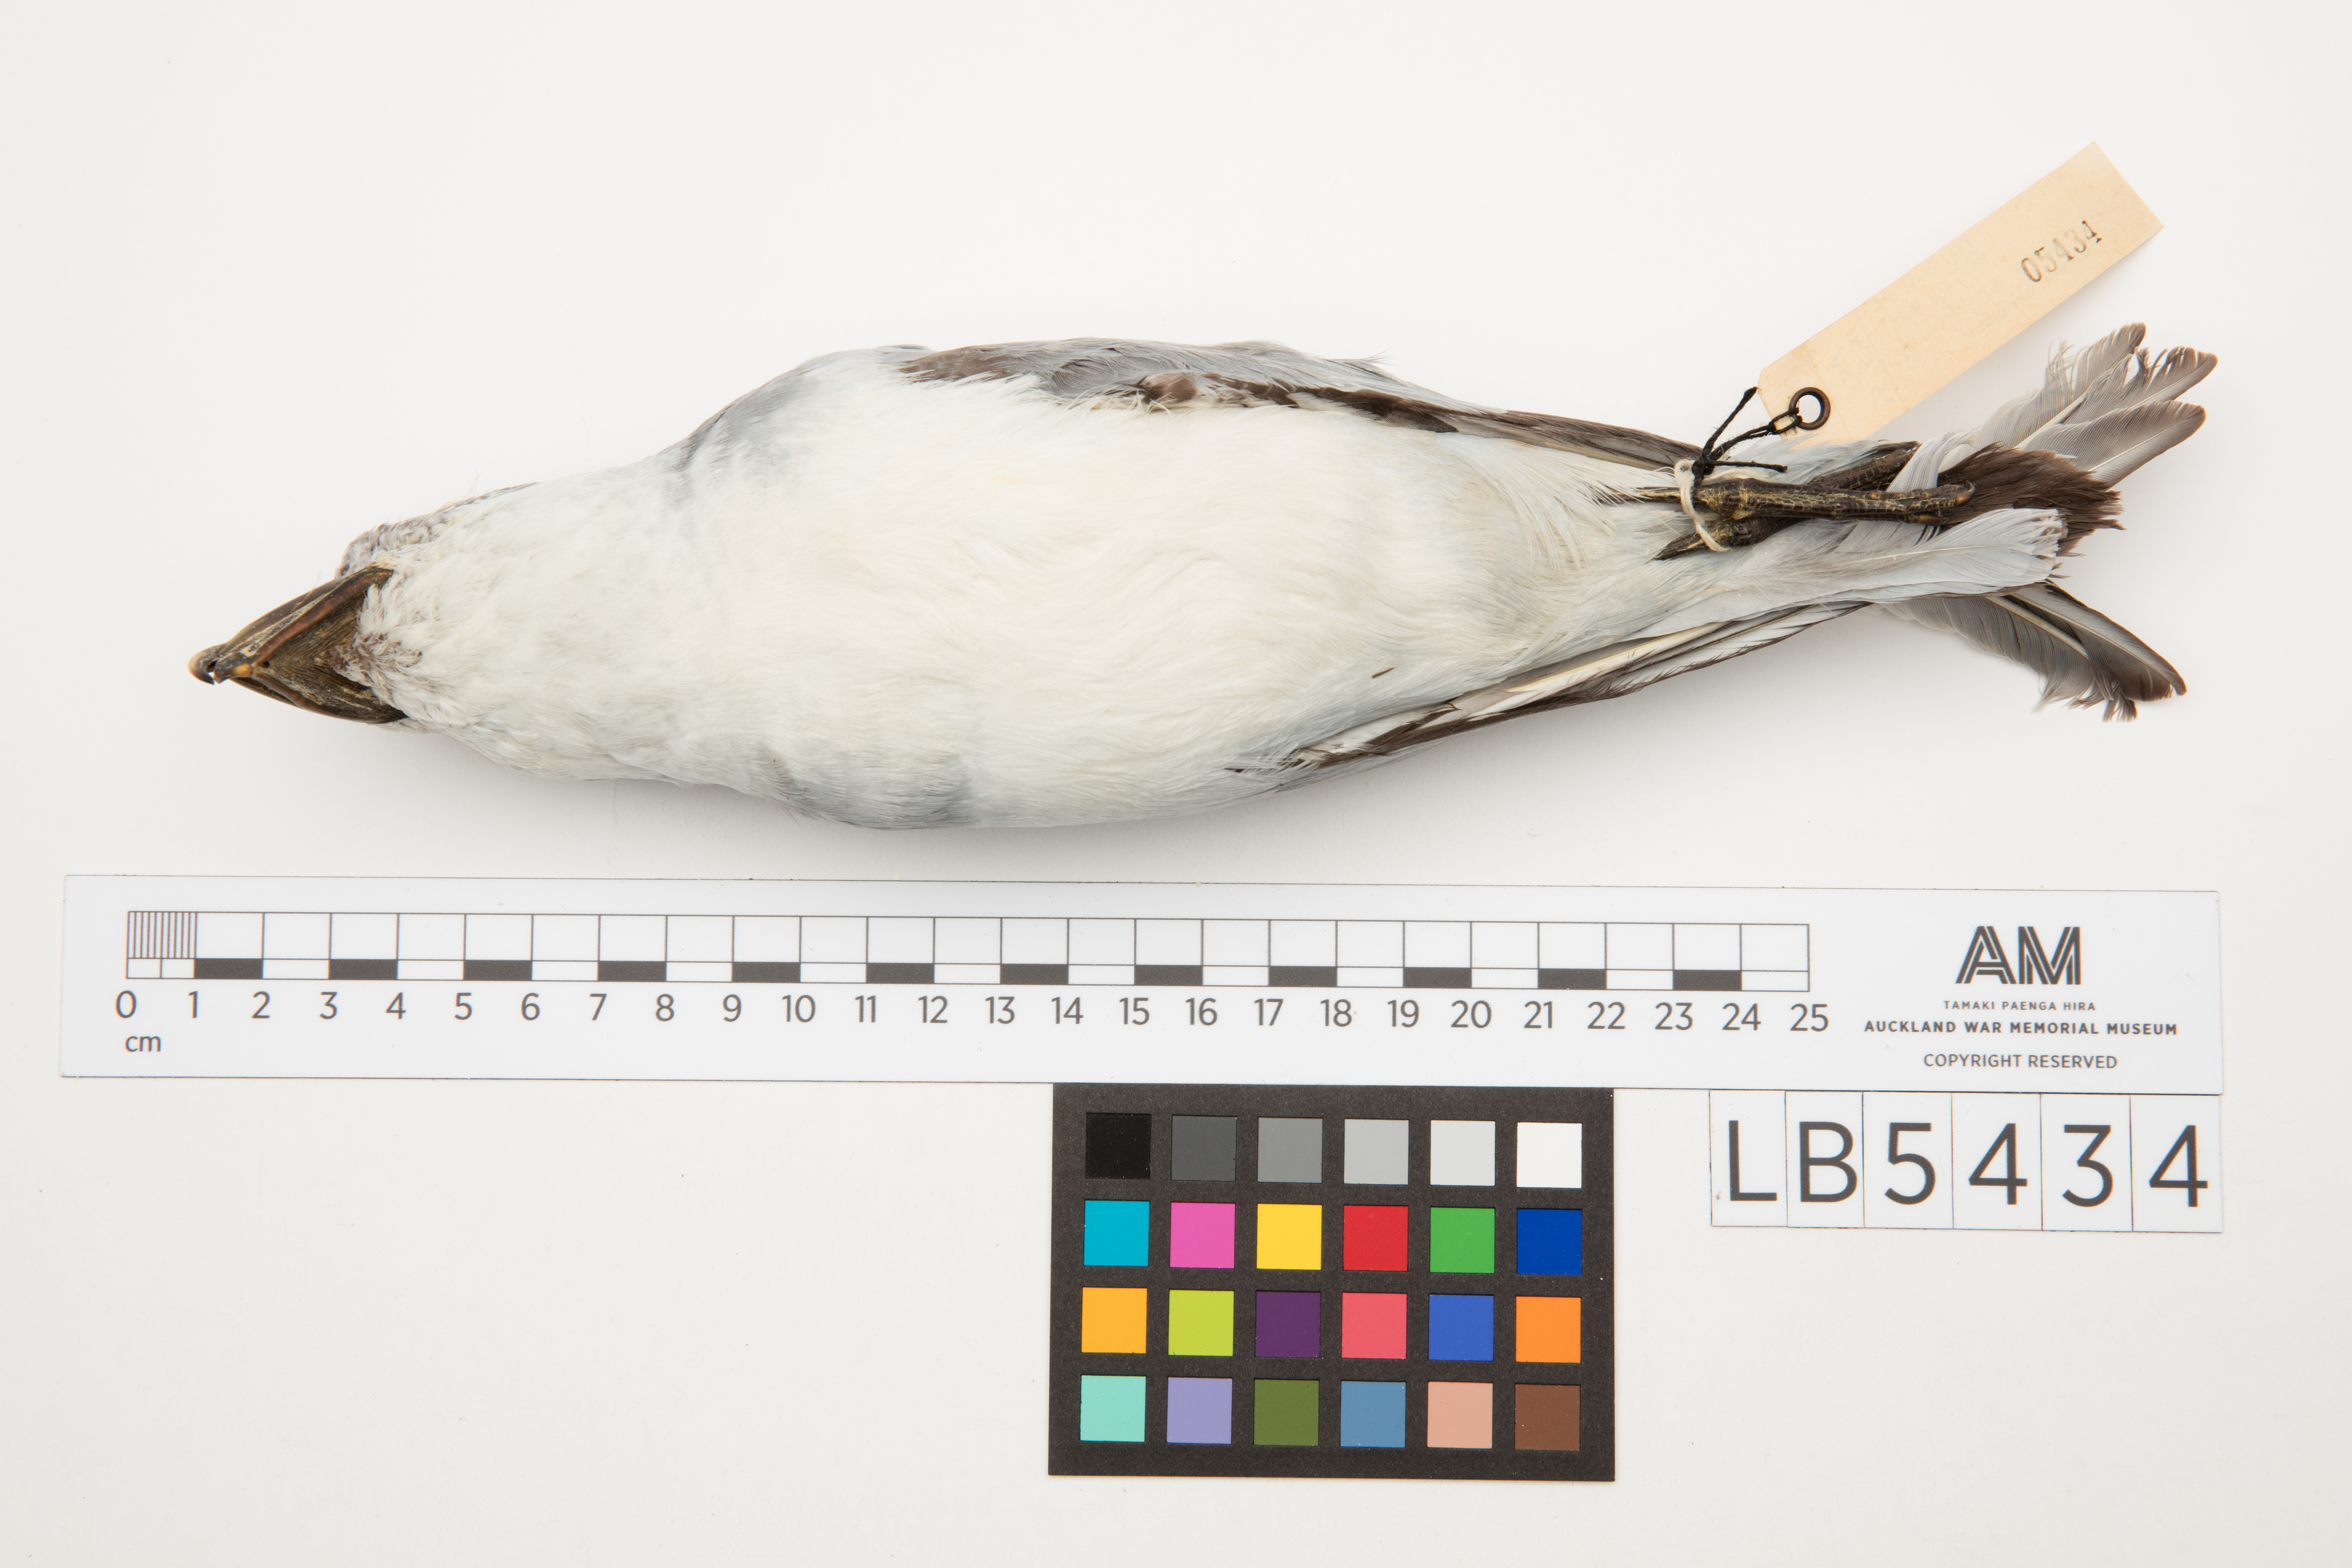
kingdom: Animalia
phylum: Chordata
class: Aves
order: Procellariiformes
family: Procellariidae
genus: Pachyptila
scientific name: Pachyptila vittata
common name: Broad-billed prion
